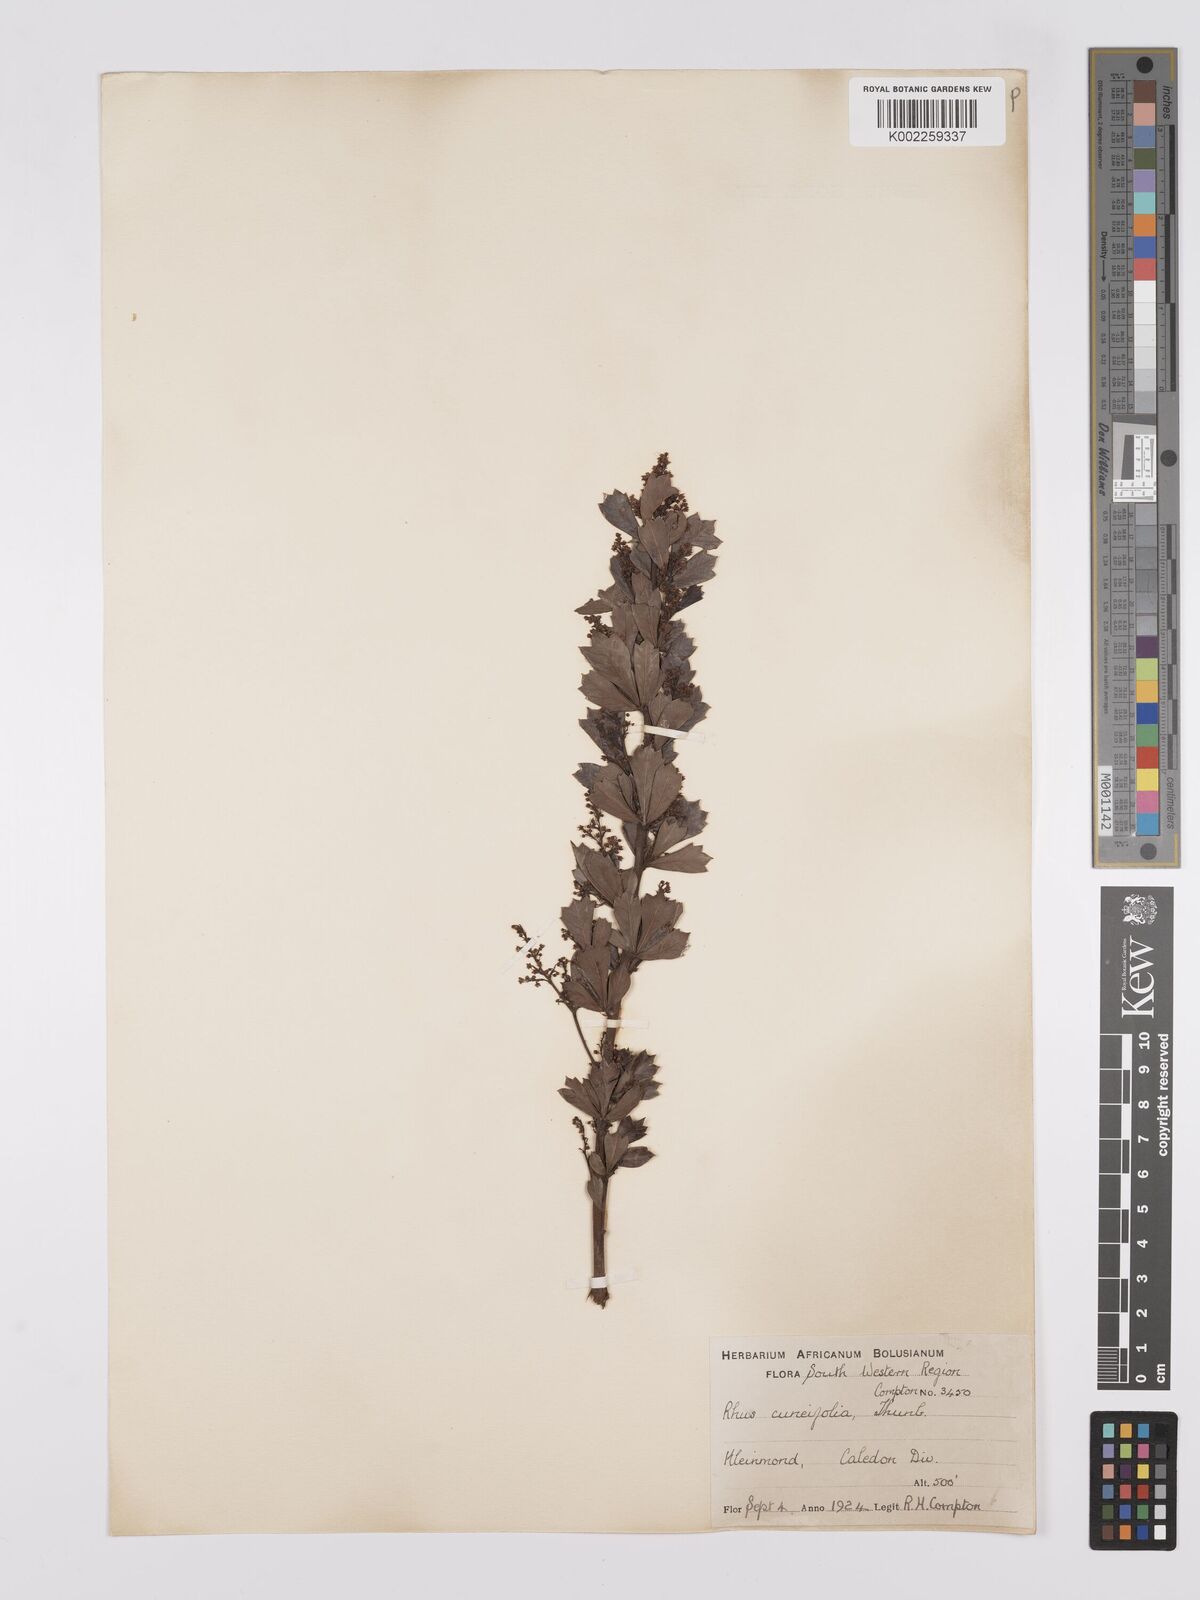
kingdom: Plantae
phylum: Tracheophyta
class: Magnoliopsida
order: Sapindales
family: Anacardiaceae
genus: Searsia
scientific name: Searsia cuneifolia
